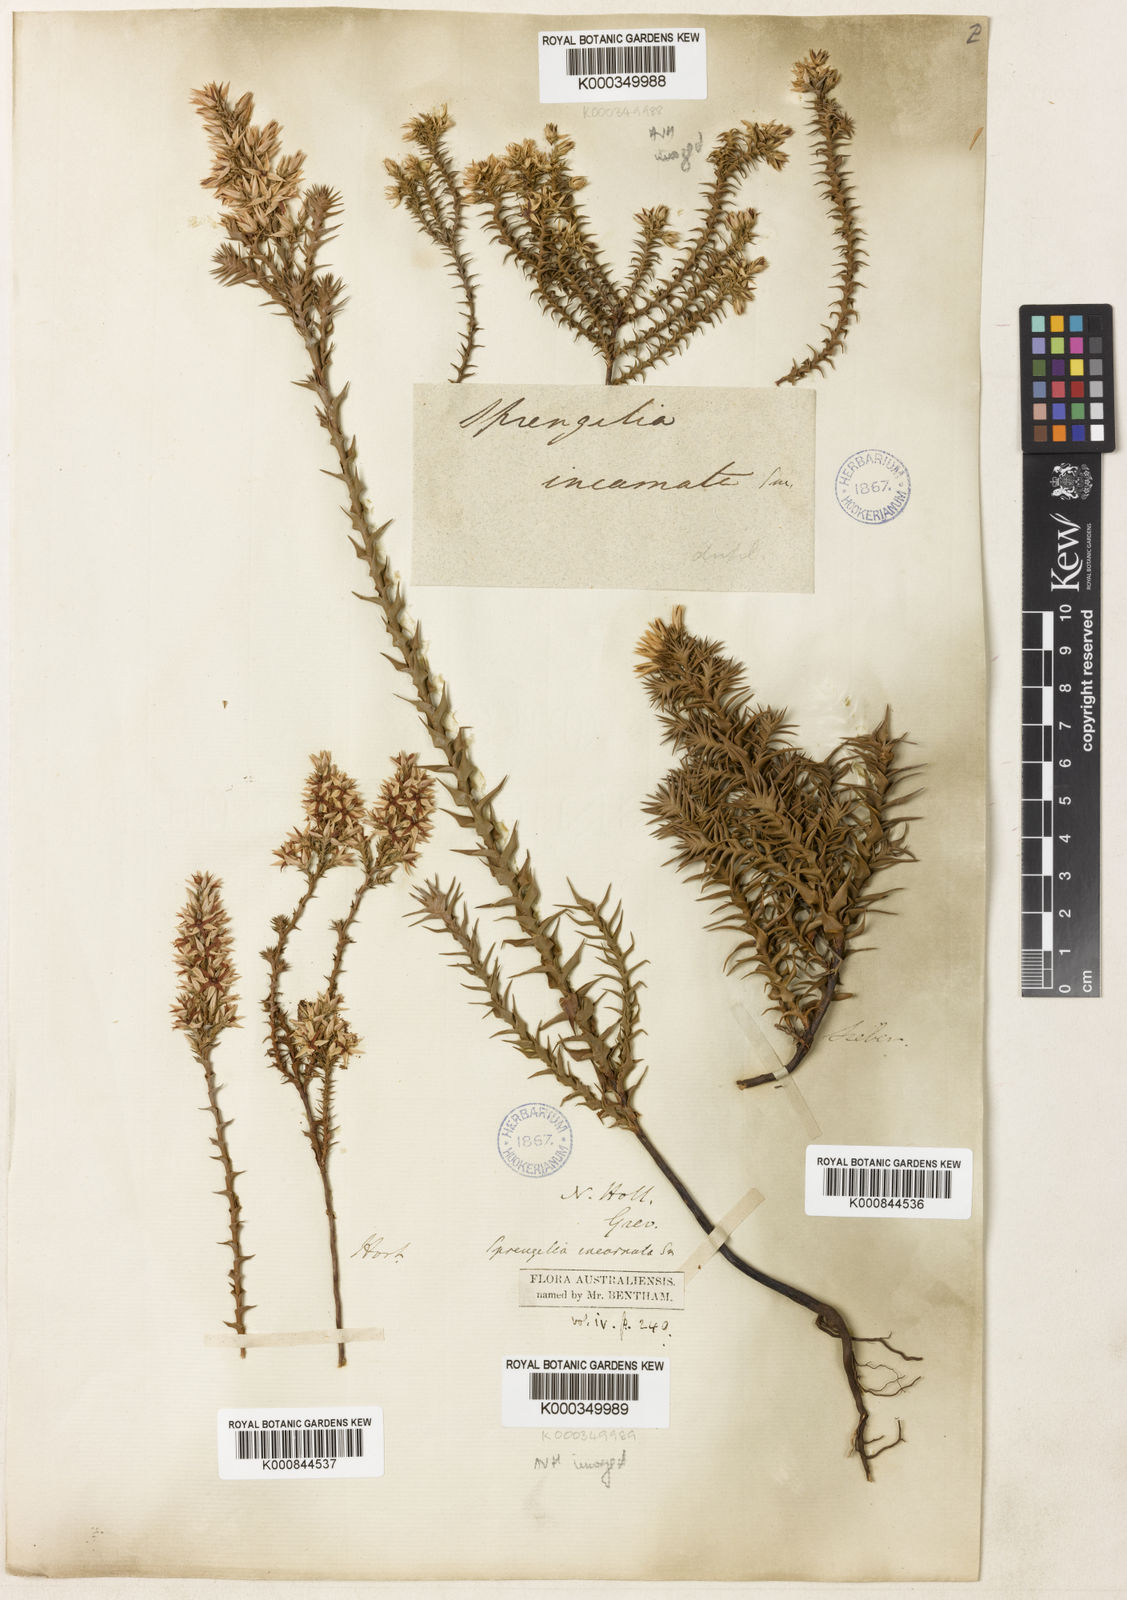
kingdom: Plantae
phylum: Tracheophyta
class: Magnoliopsida
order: Ericales
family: Ericaceae
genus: Sprengelia
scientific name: Sprengelia incarnata
